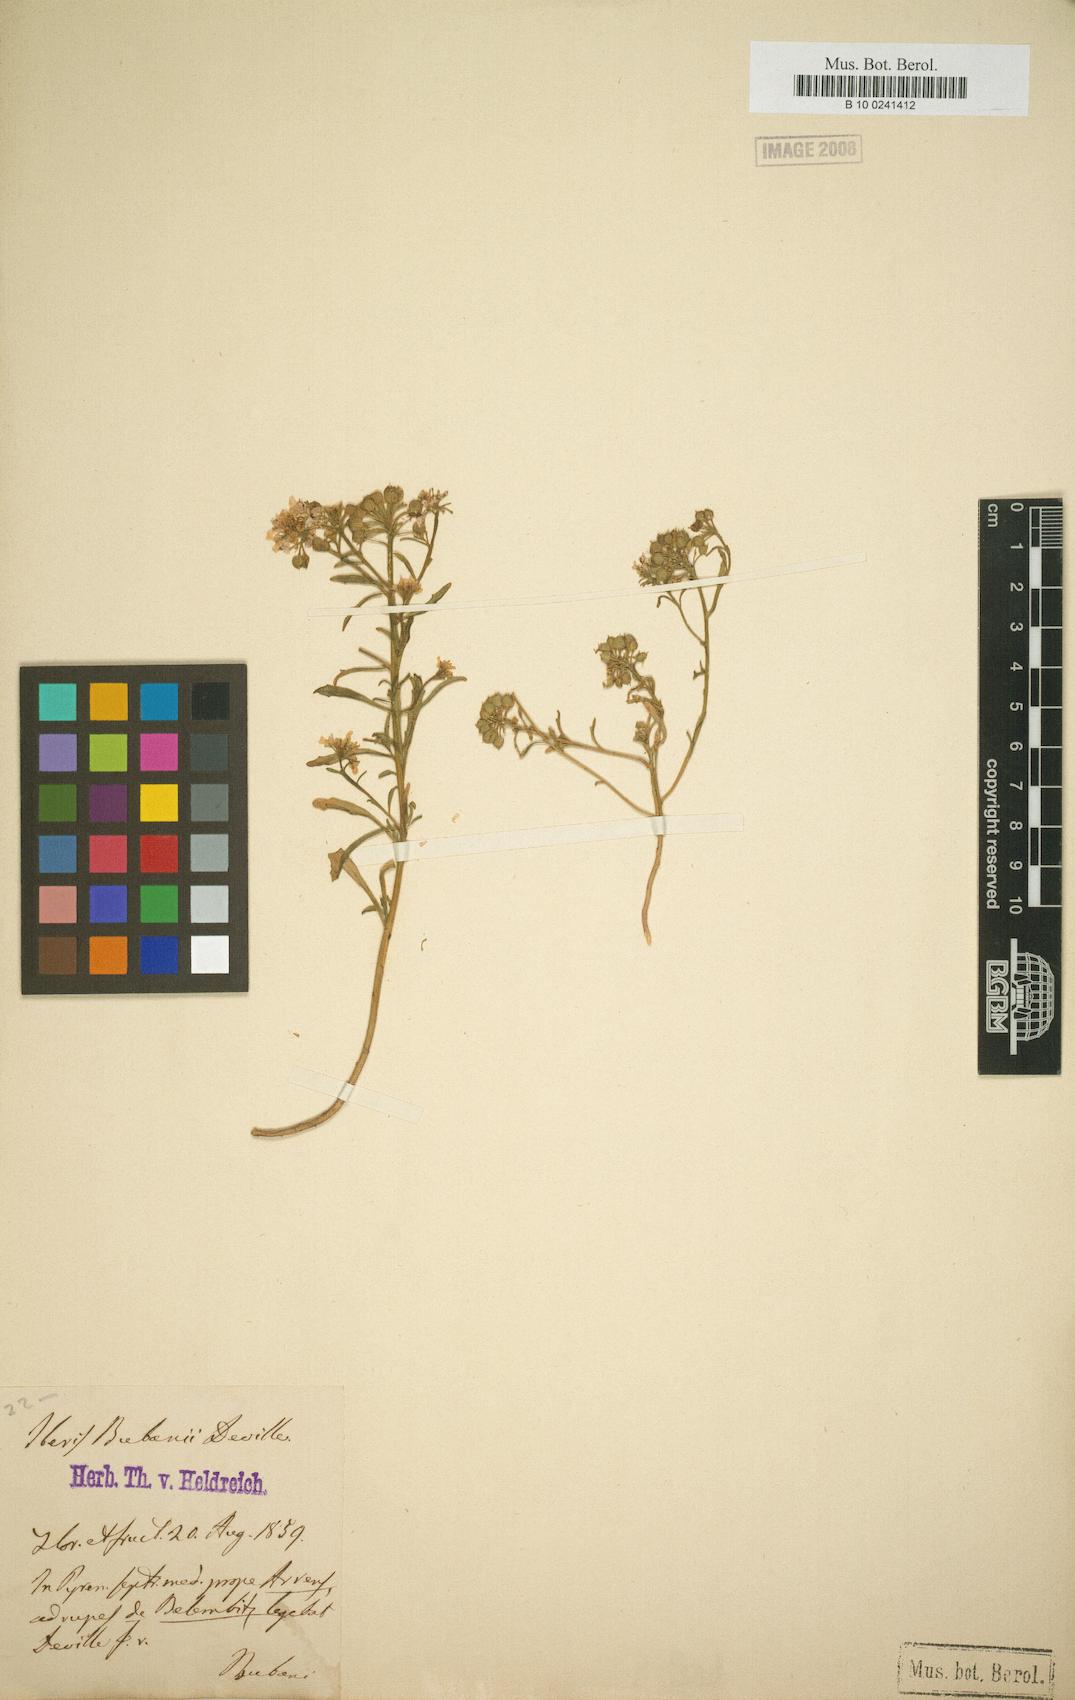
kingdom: Plantae
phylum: Tracheophyta
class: Magnoliopsida
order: Brassicales
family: Brassicaceae
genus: Iberis
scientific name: Iberis bernardiana
